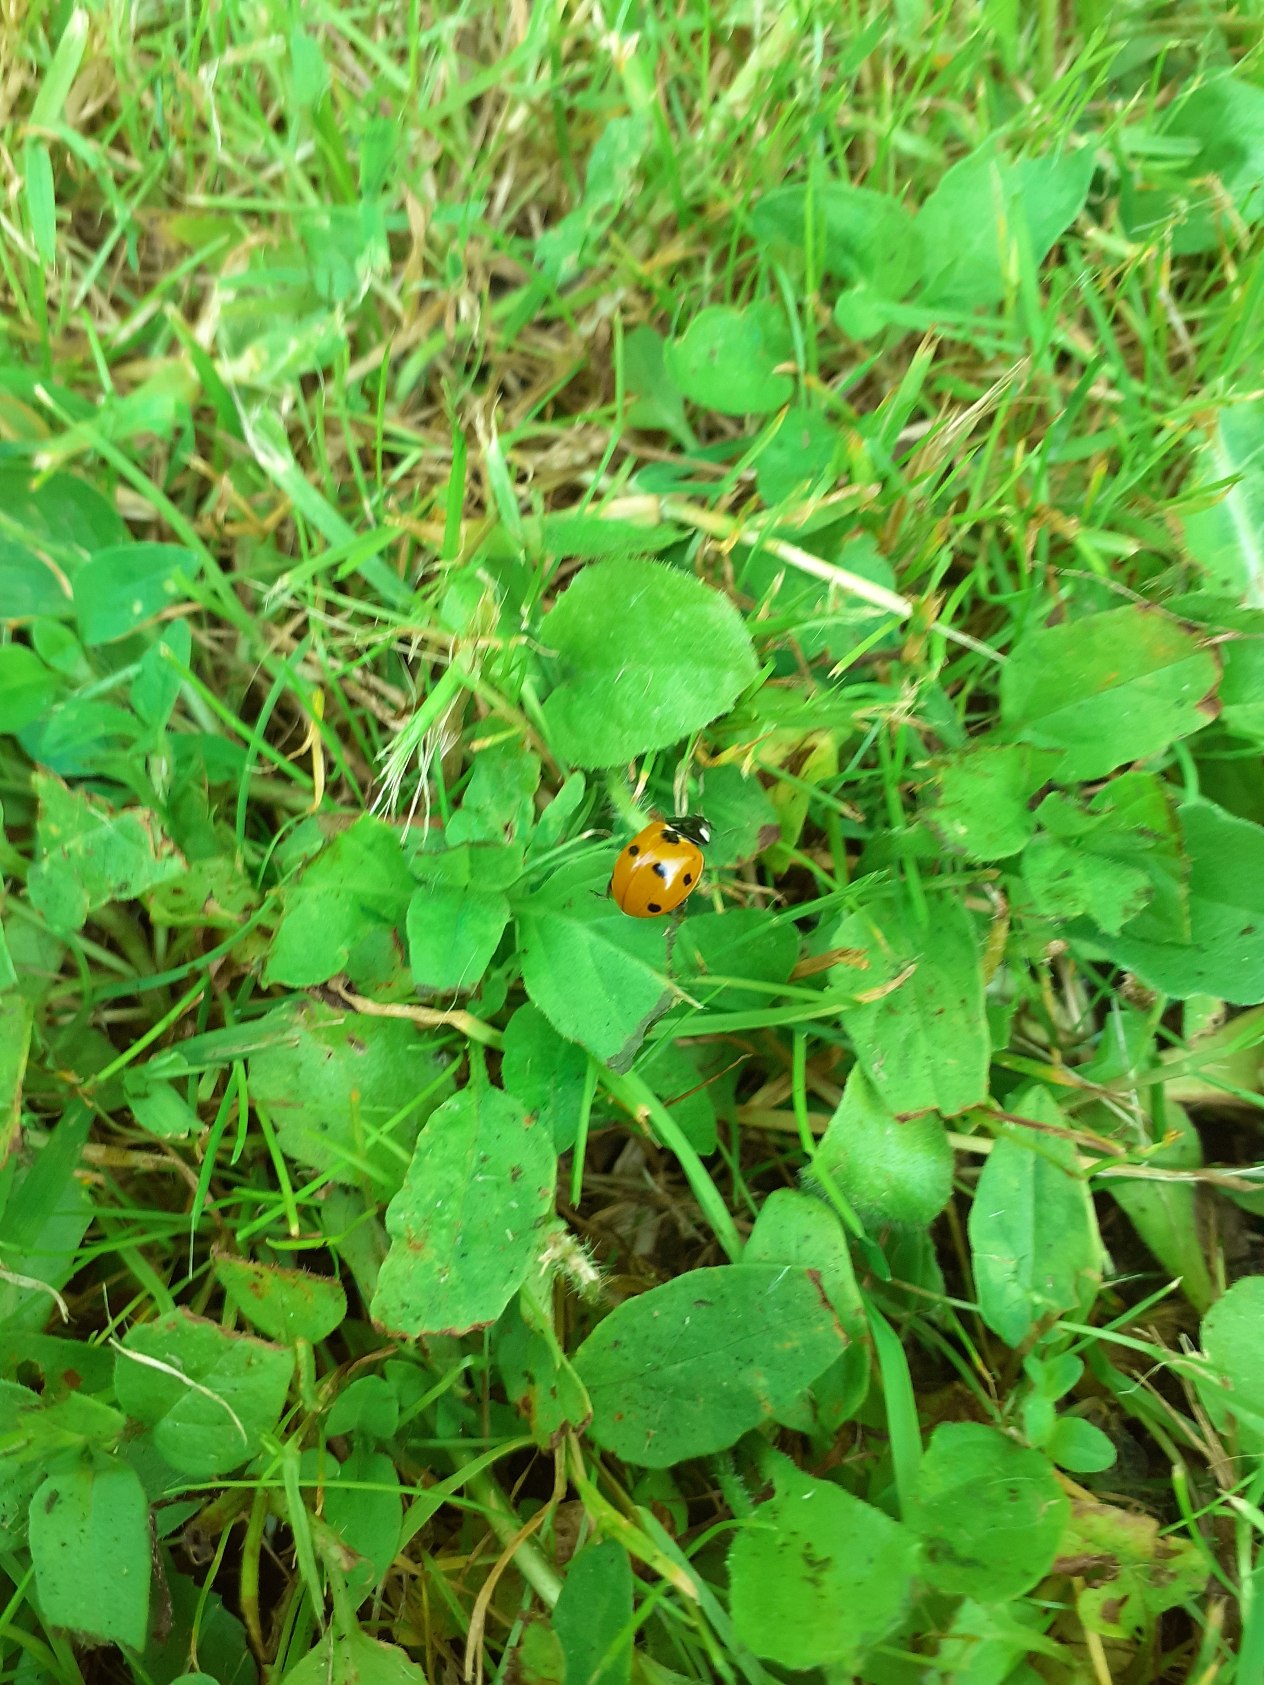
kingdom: Animalia
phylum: Arthropoda
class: Insecta
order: Coleoptera
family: Coccinellidae
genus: Coccinella
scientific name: Coccinella septempunctata
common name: Syvplettet mariehøne
